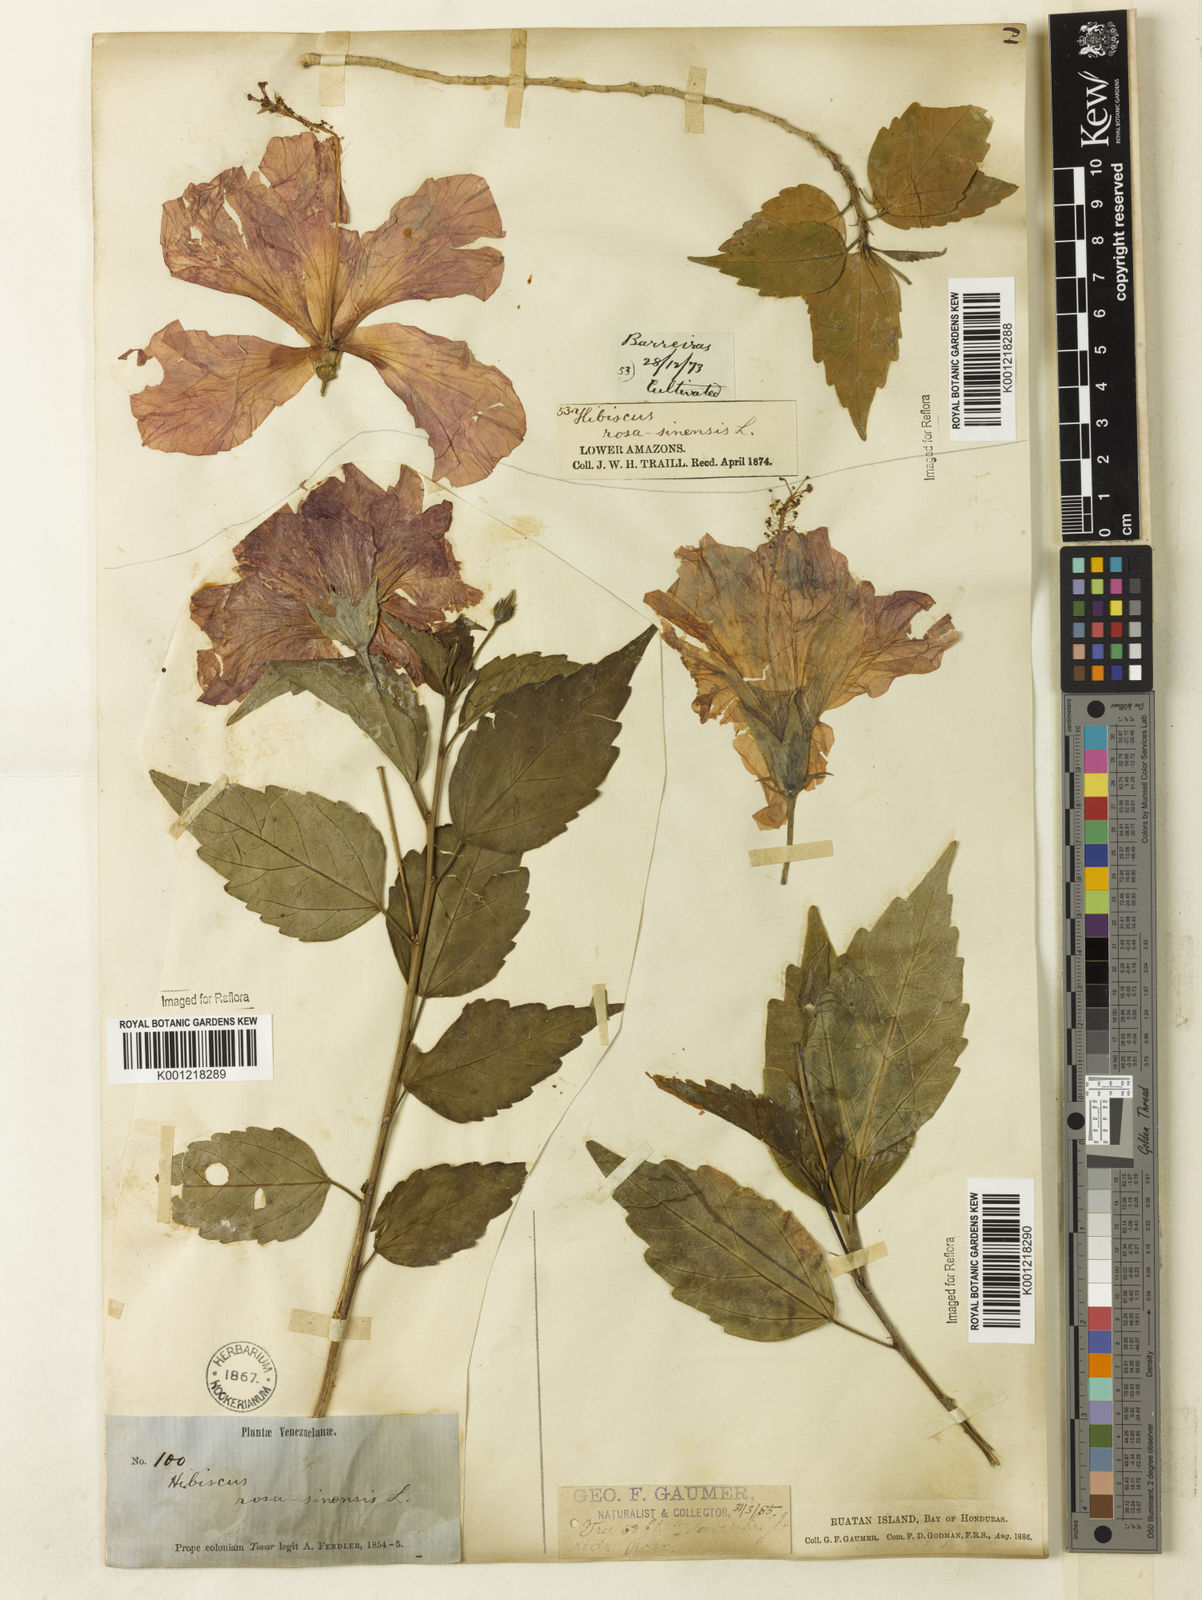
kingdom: Plantae
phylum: Tracheophyta
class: Magnoliopsida
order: Malvales
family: Malvaceae
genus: Hibiscus
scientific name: Hibiscus rosa-sinensis
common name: Hibiscus
